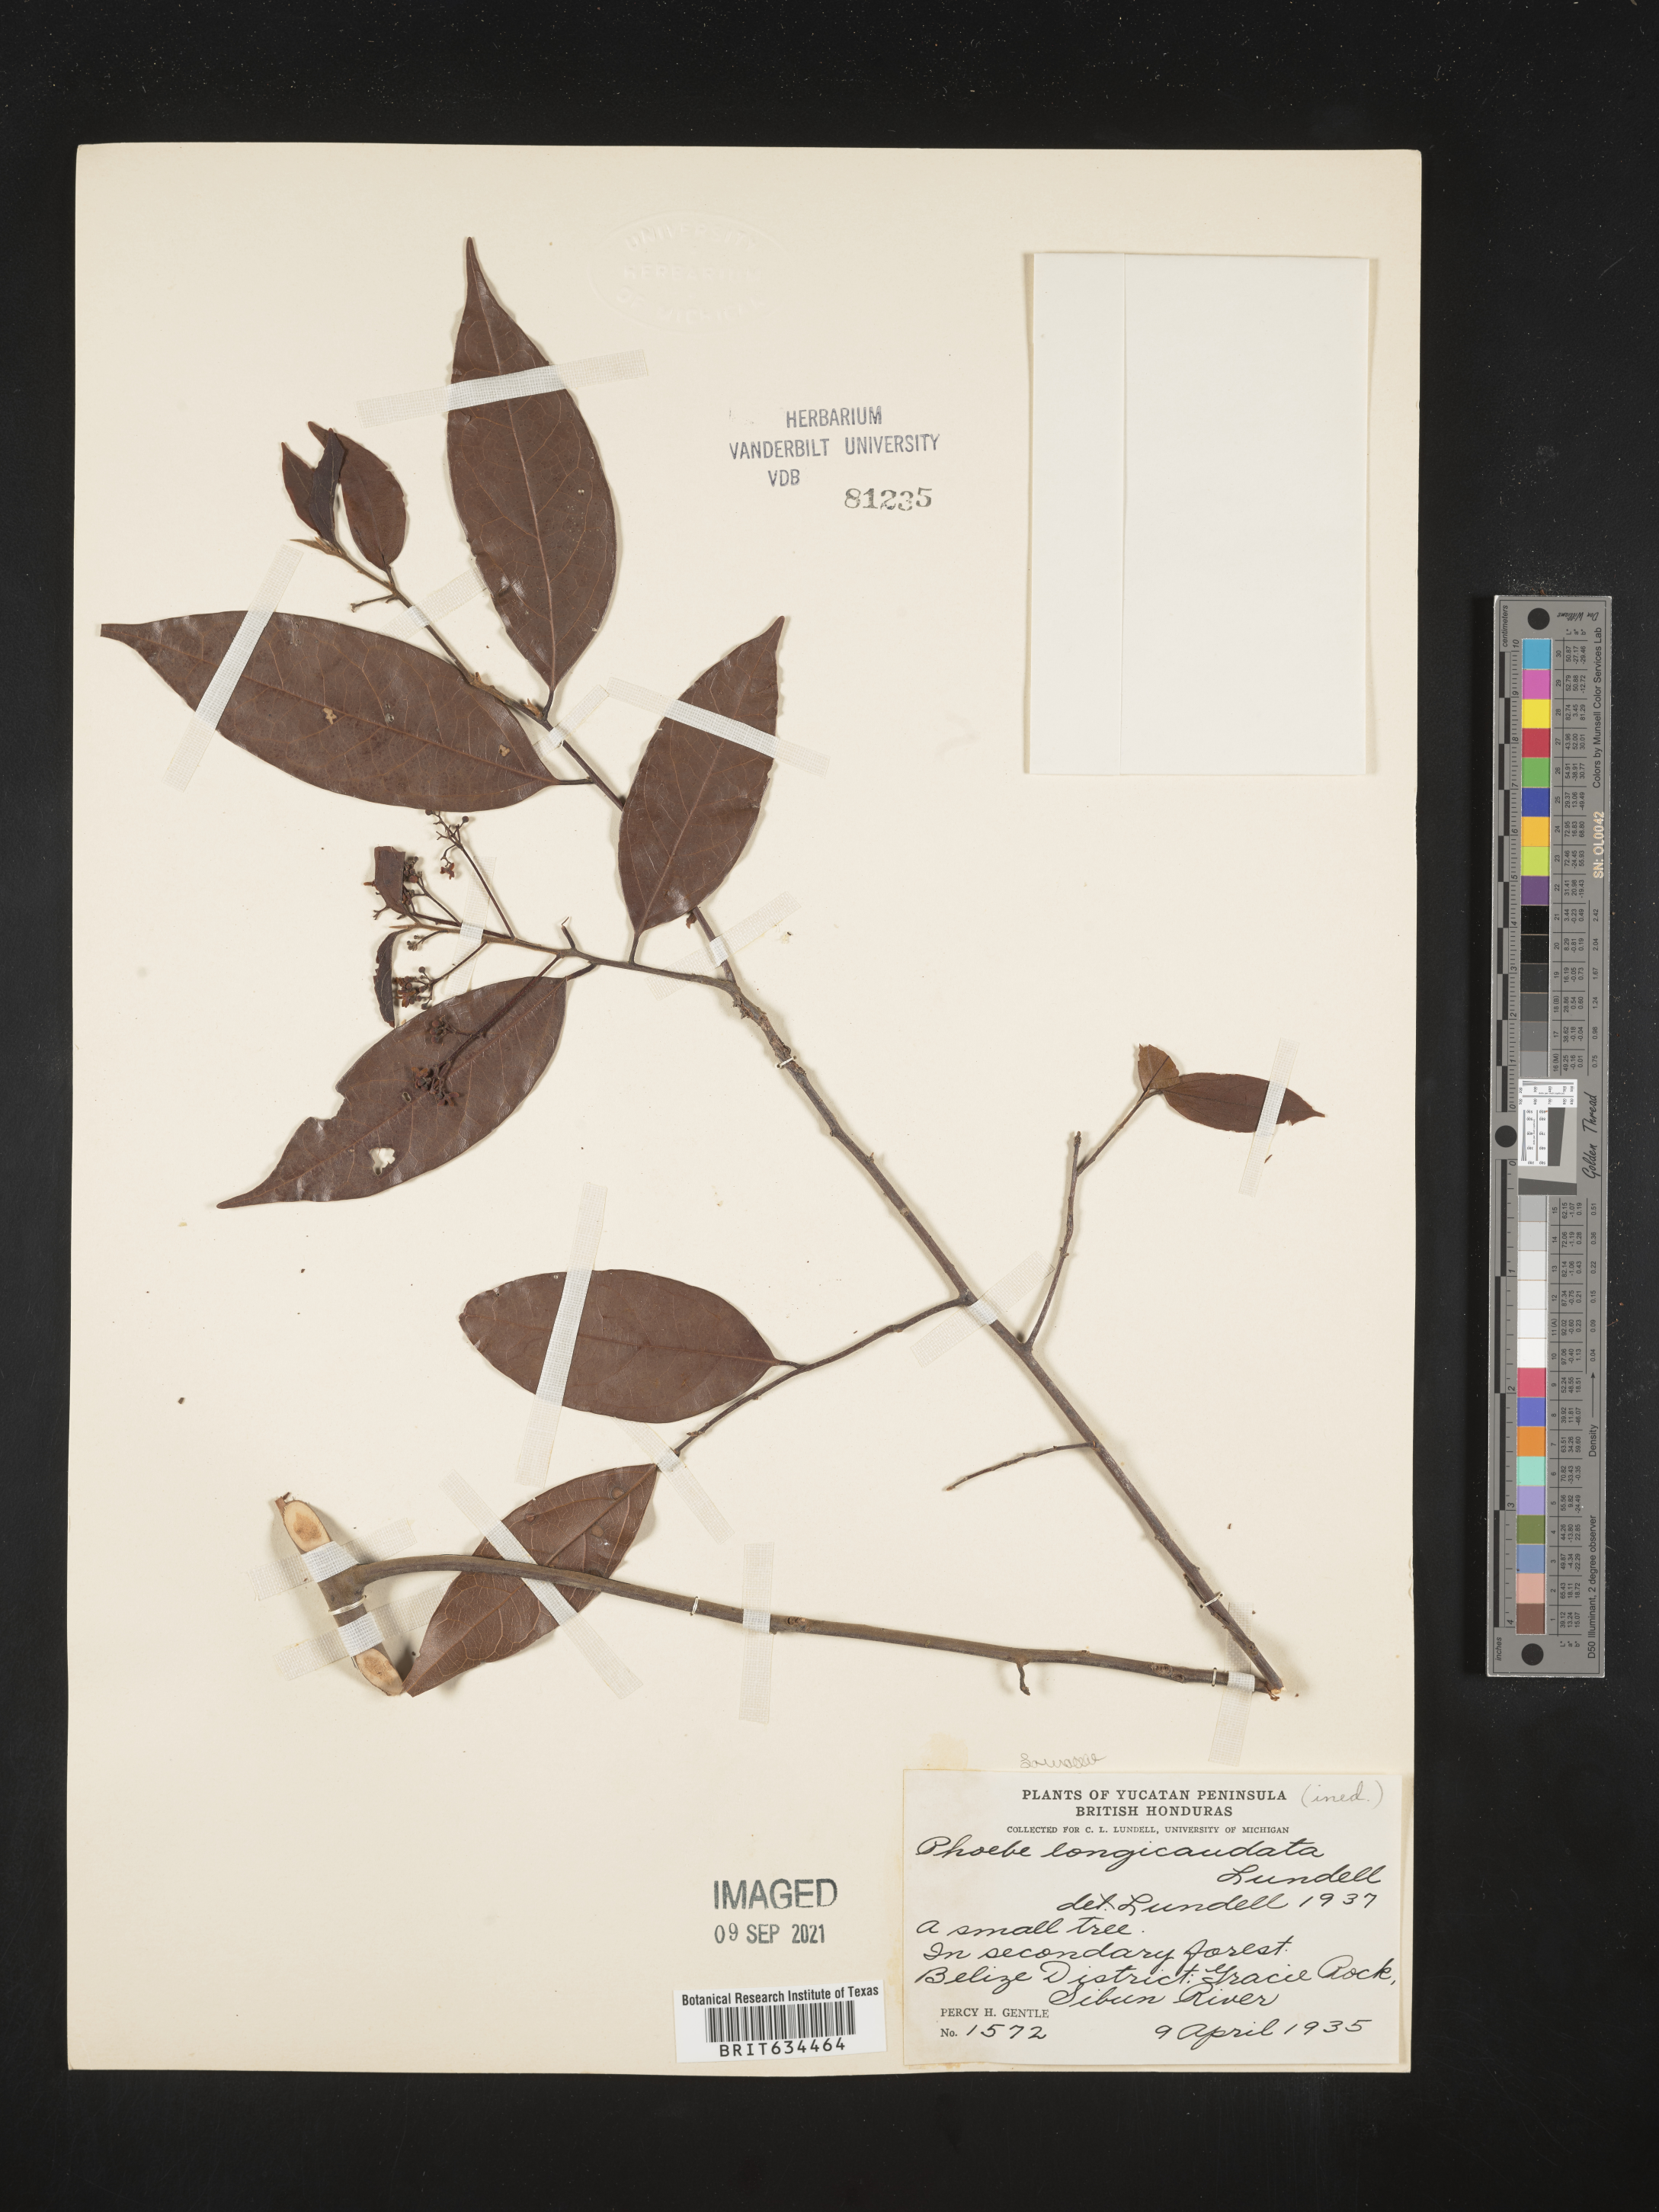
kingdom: Plantae
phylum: Tracheophyta
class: Magnoliopsida
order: Laurales
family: Lauraceae
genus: Phoebe
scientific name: Phoebe
